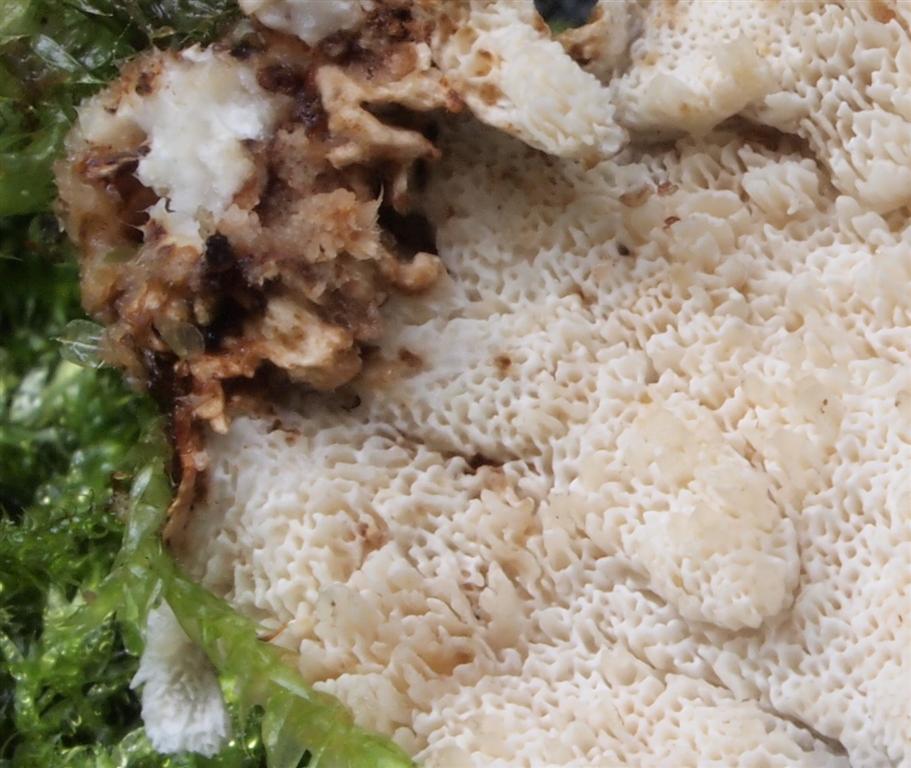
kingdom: Fungi
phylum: Basidiomycota
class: Agaricomycetes
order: Polyporales
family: Polyporaceae
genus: Trametes
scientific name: Trametes versicolor
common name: broget læderporesvamp
